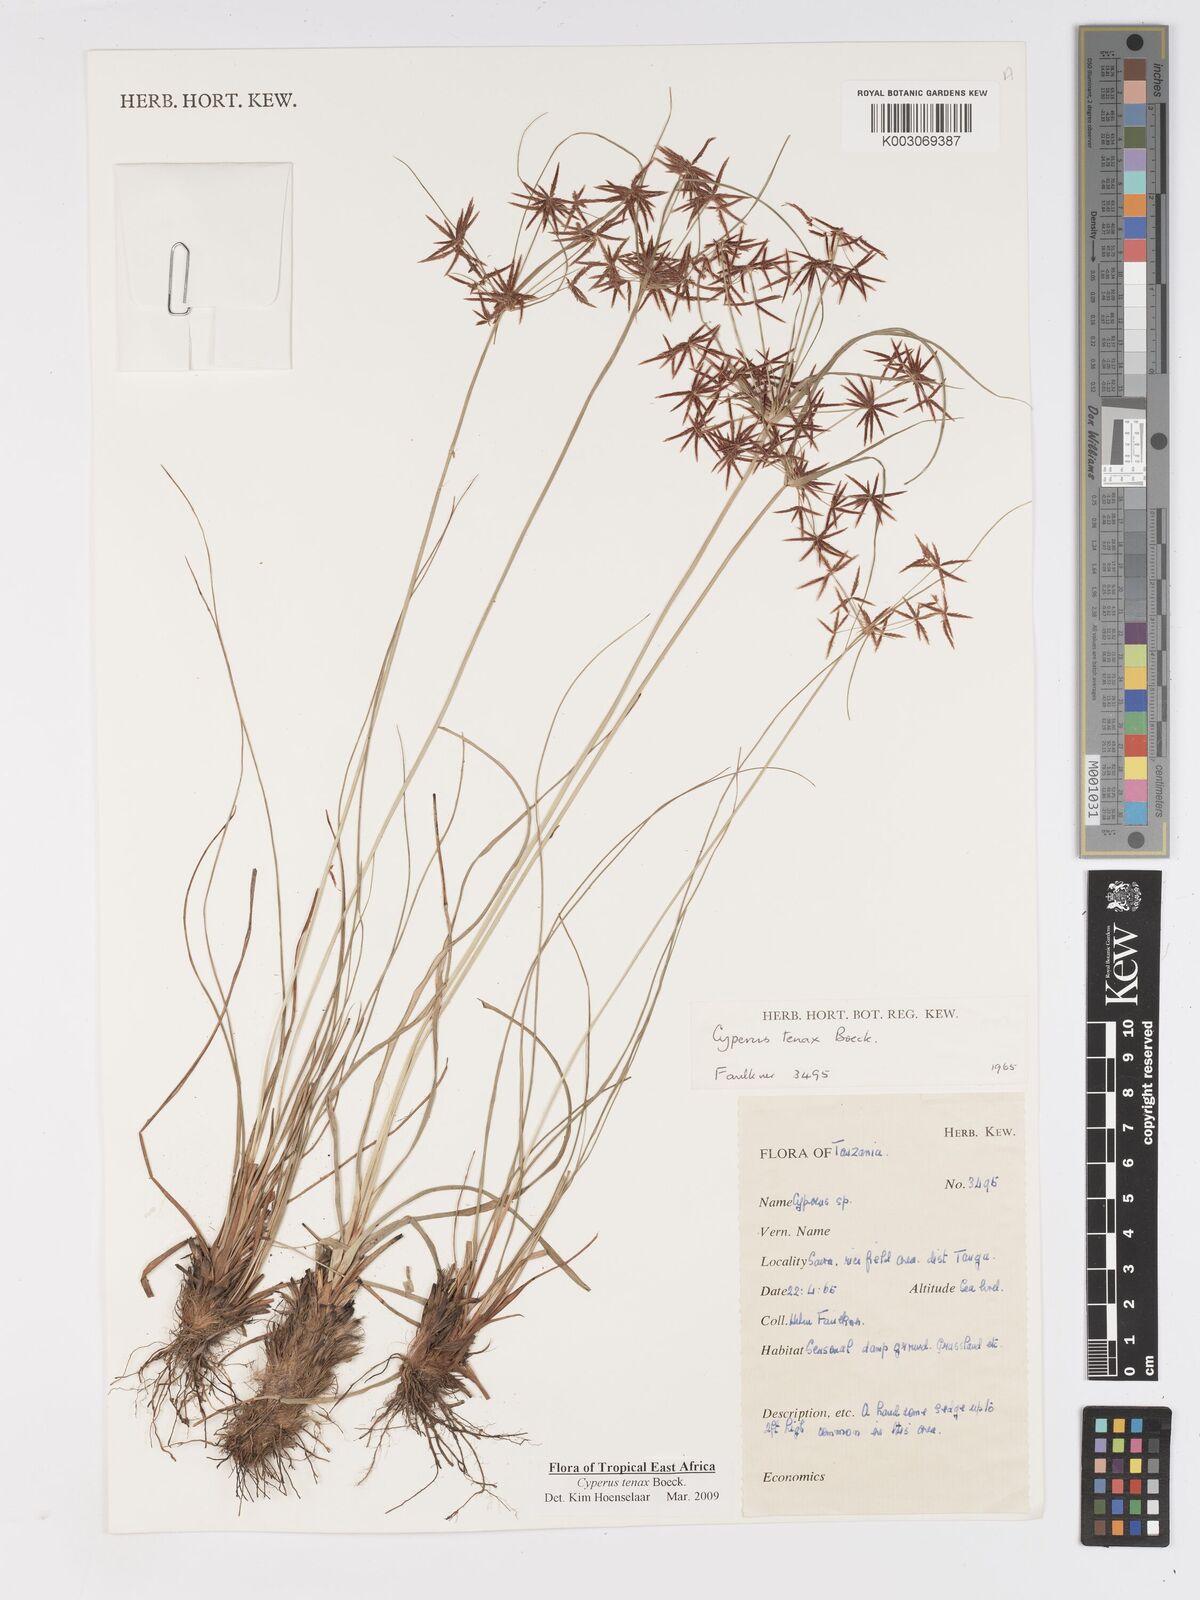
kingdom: Plantae
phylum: Tracheophyta
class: Liliopsida
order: Poales
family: Cyperaceae
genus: Cyperus
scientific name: Cyperus tenax
